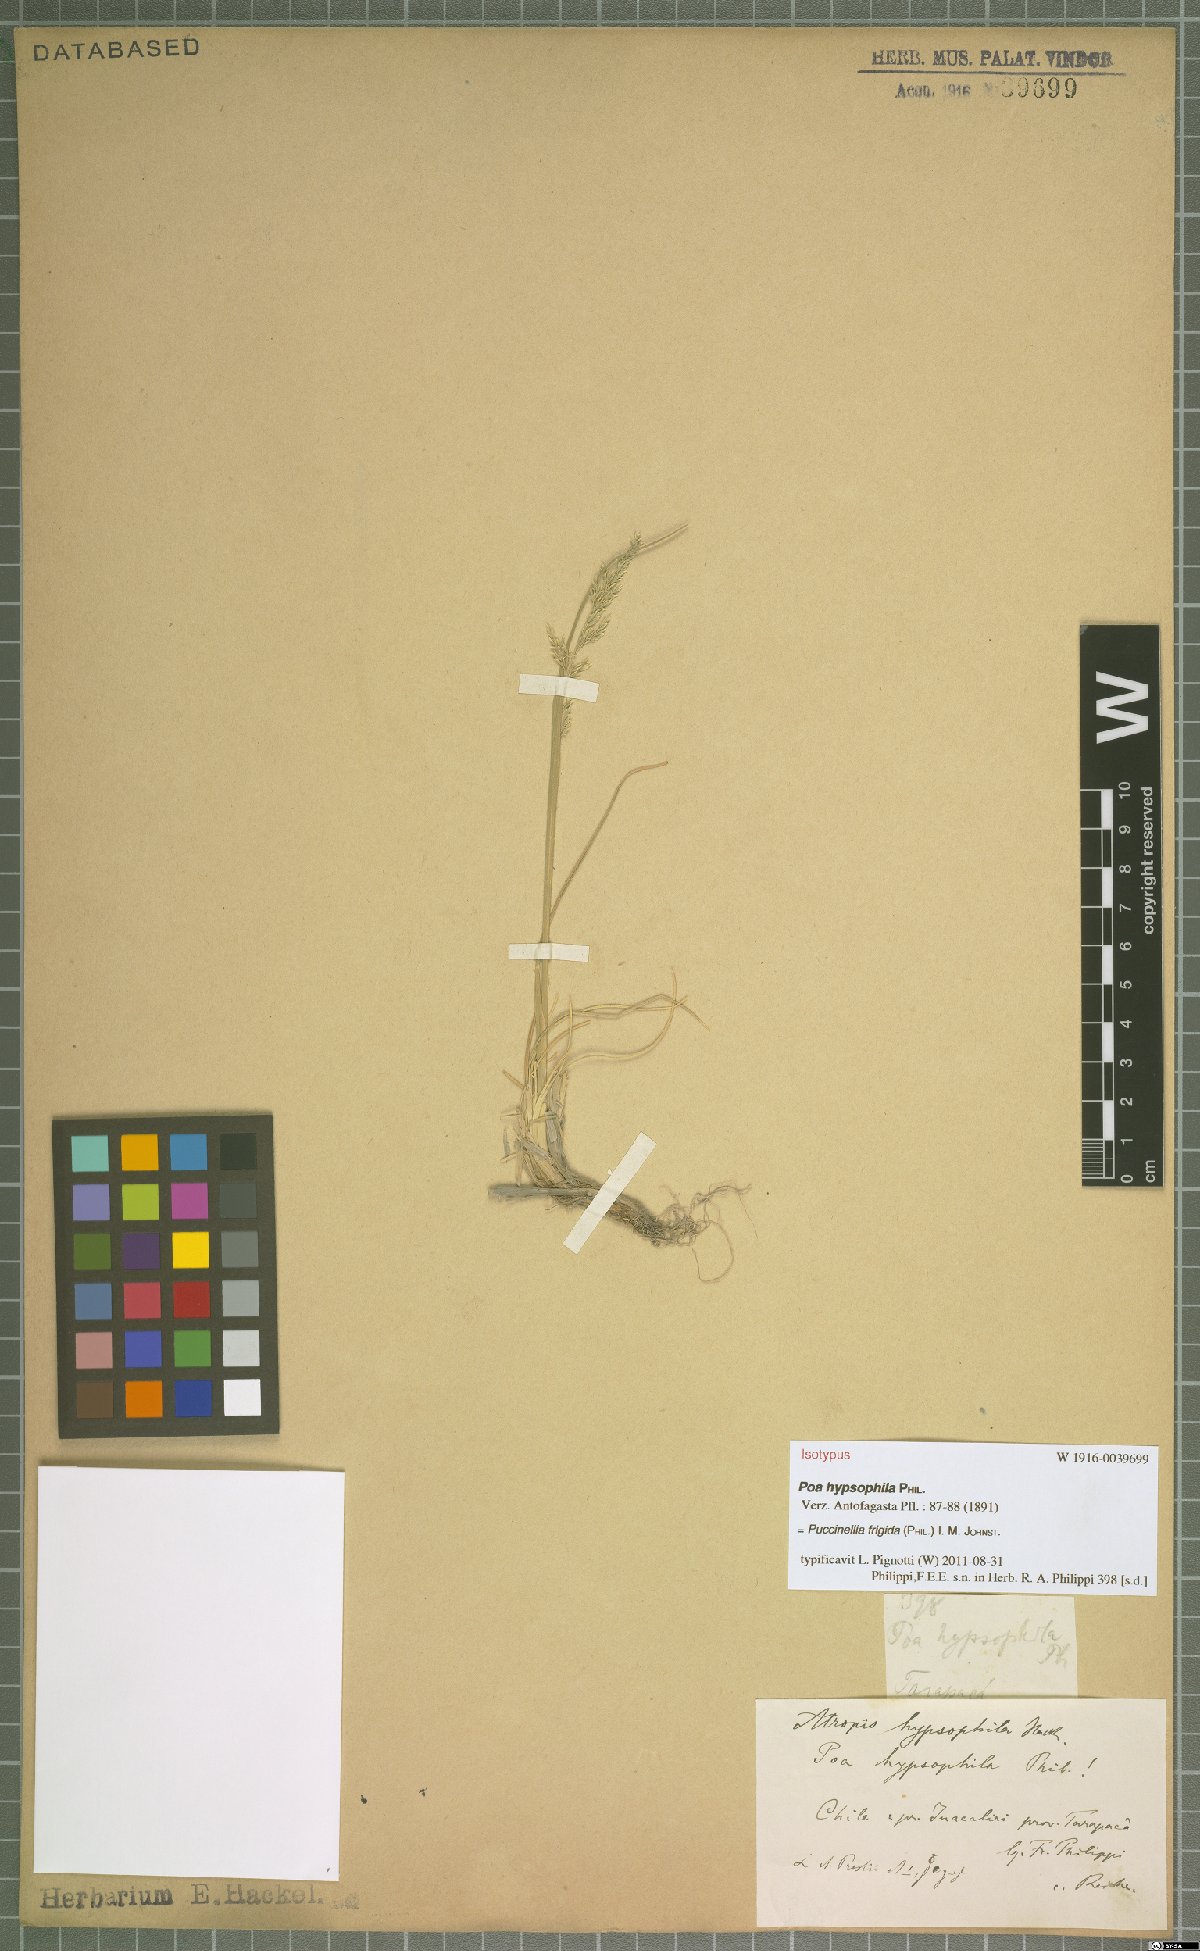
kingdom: Plantae
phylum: Tracheophyta
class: Liliopsida
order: Poales
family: Poaceae
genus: Puccinellia
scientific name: Puccinellia frigida
